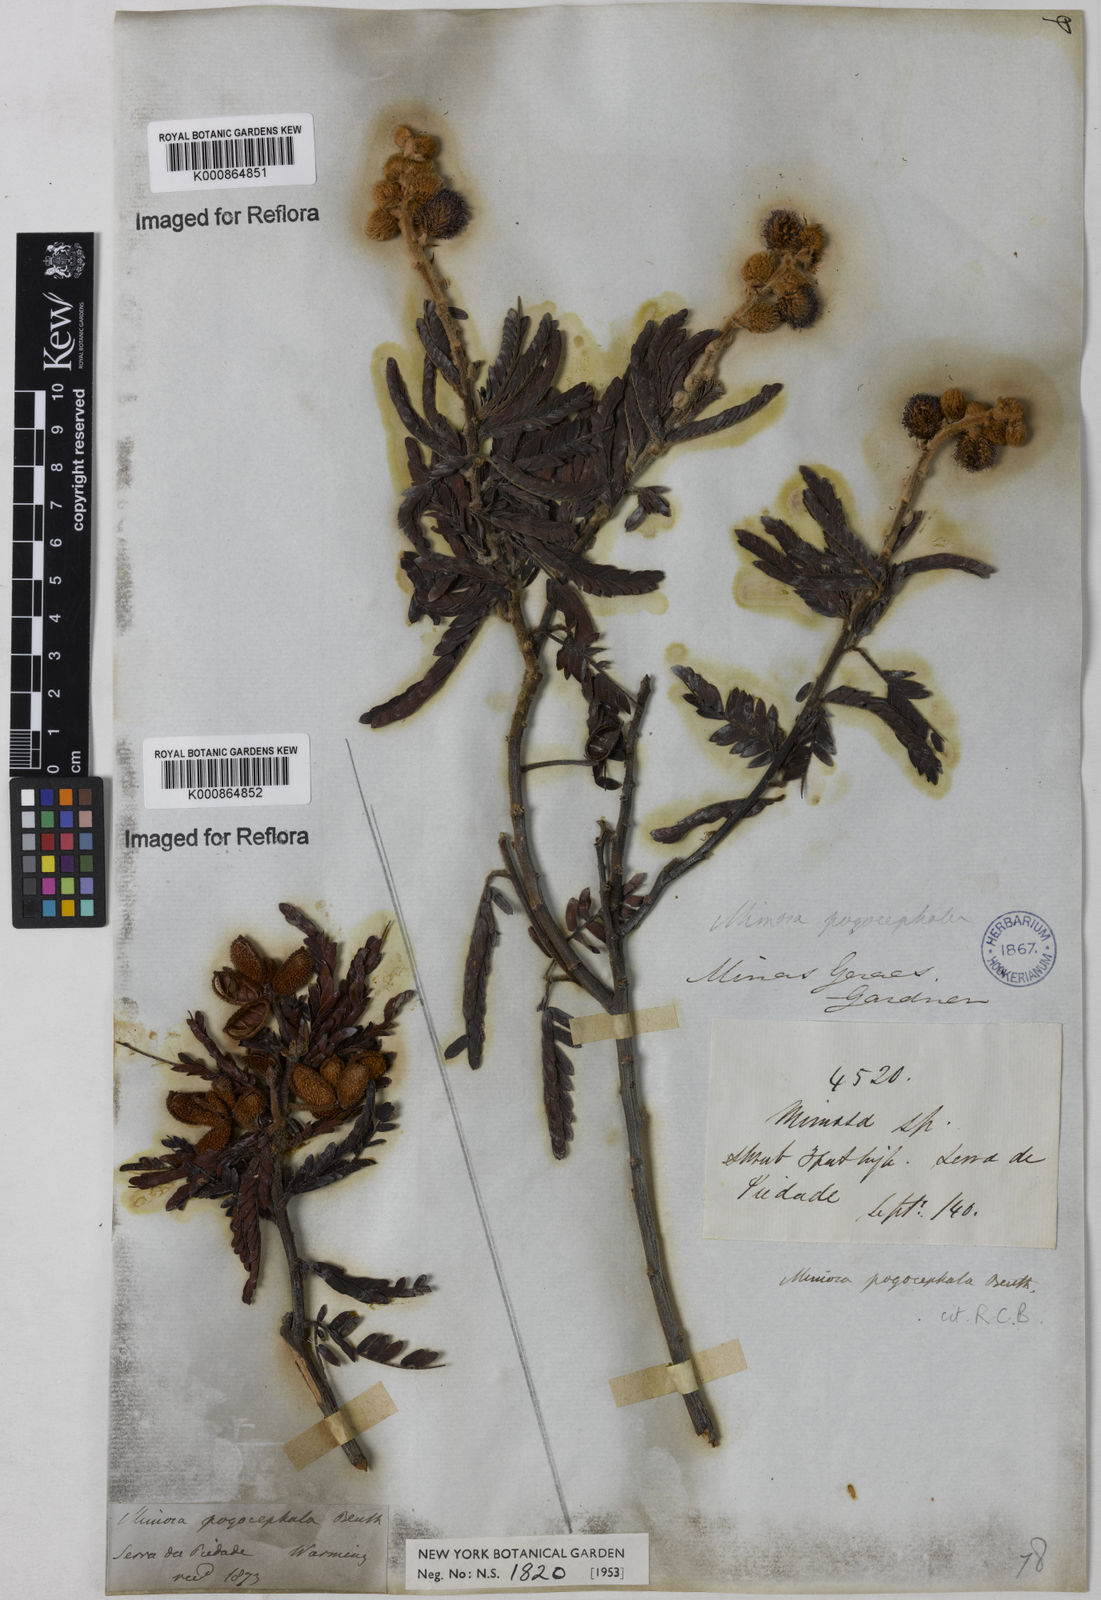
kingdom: Plantae
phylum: Tracheophyta
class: Magnoliopsida
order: Fabales
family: Fabaceae
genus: Mimosa
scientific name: Mimosa pogocephala
